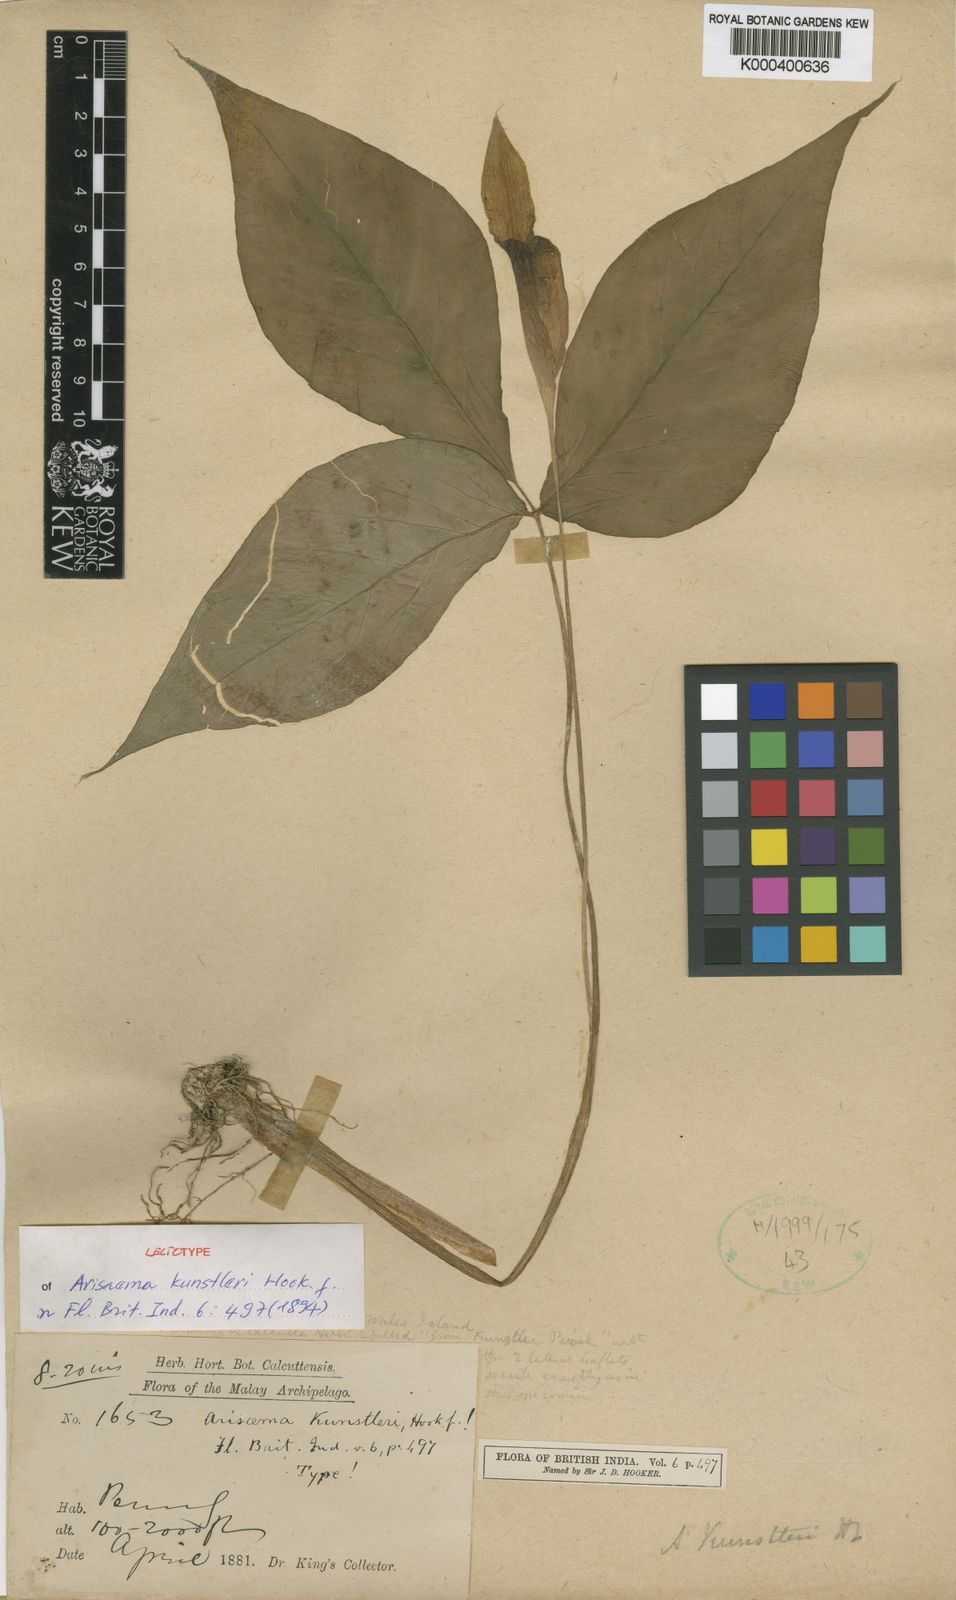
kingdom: Plantae
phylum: Tracheophyta
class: Liliopsida
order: Alismatales
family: Araceae
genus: Arisaema
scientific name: Arisaema roxburghii
